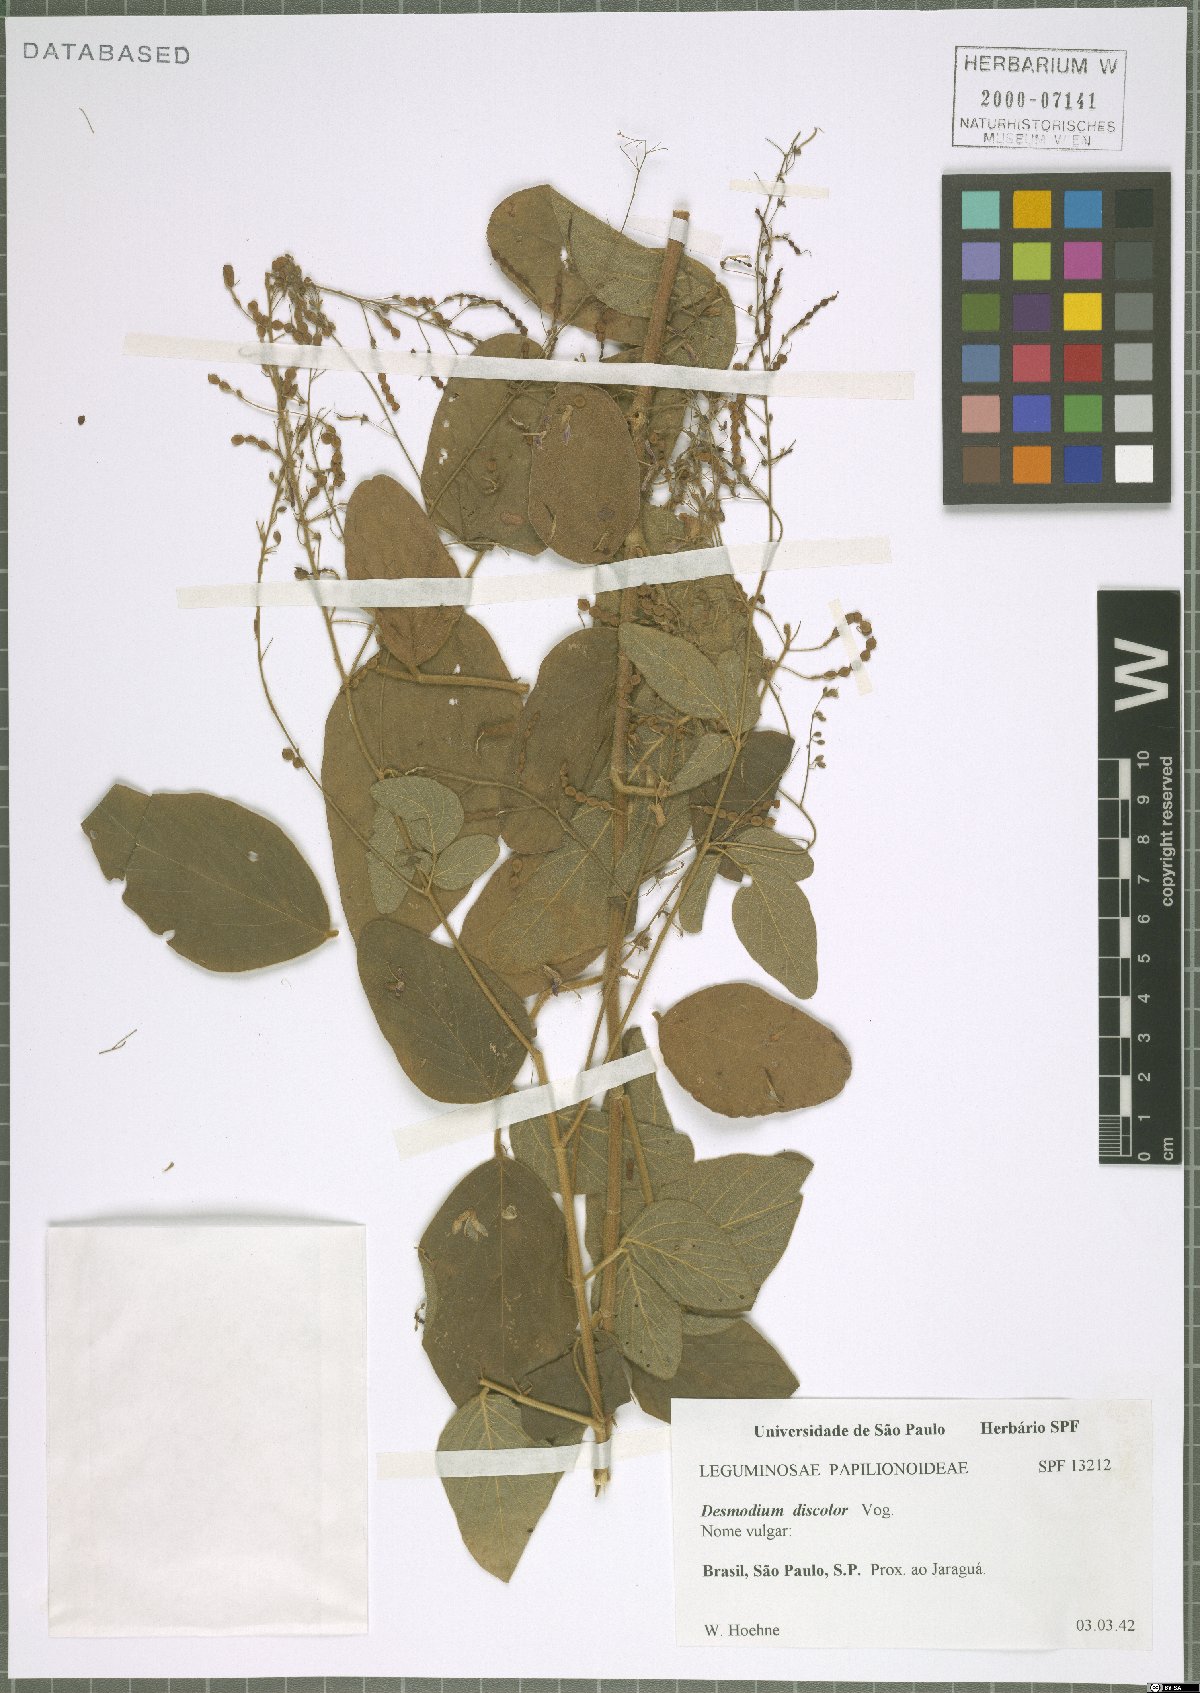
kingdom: Plantae
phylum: Tracheophyta
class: Magnoliopsida
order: Fabales
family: Fabaceae
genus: Desmodium
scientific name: Desmodium subsecundum
